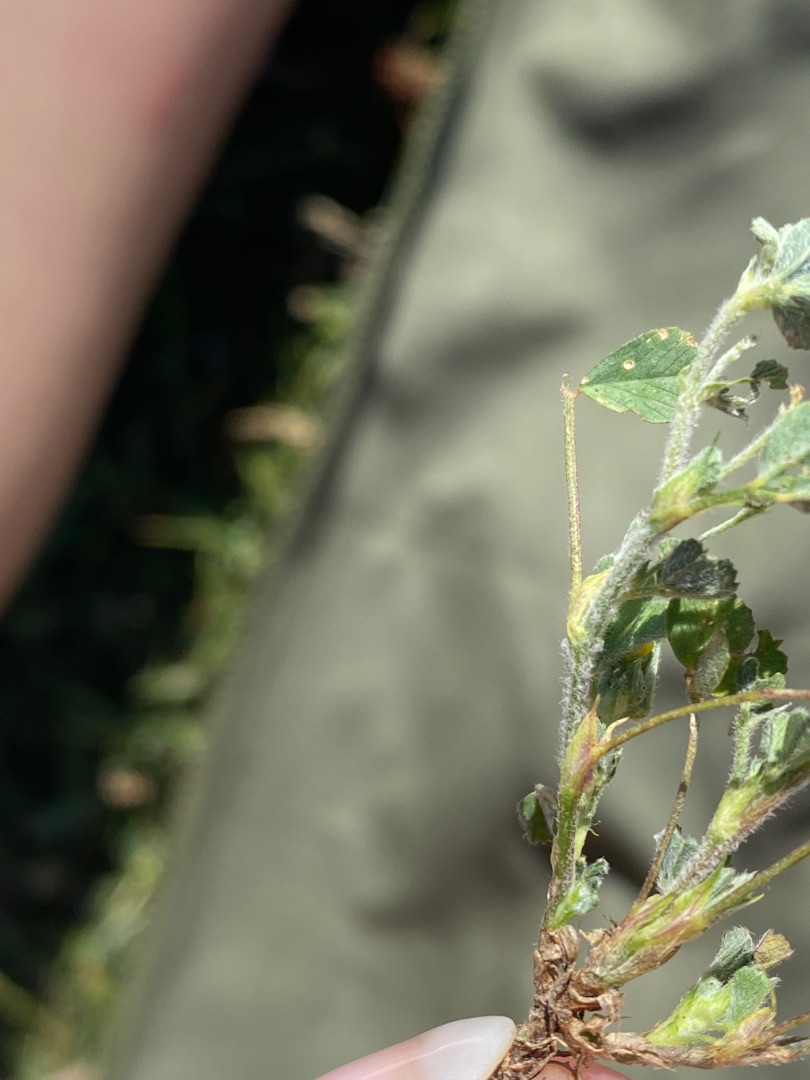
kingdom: Plantae
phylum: Tracheophyta
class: Magnoliopsida
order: Fabales
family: Fabaceae
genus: Medicago
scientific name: Medicago lupulina
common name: Humle-sneglebælg
